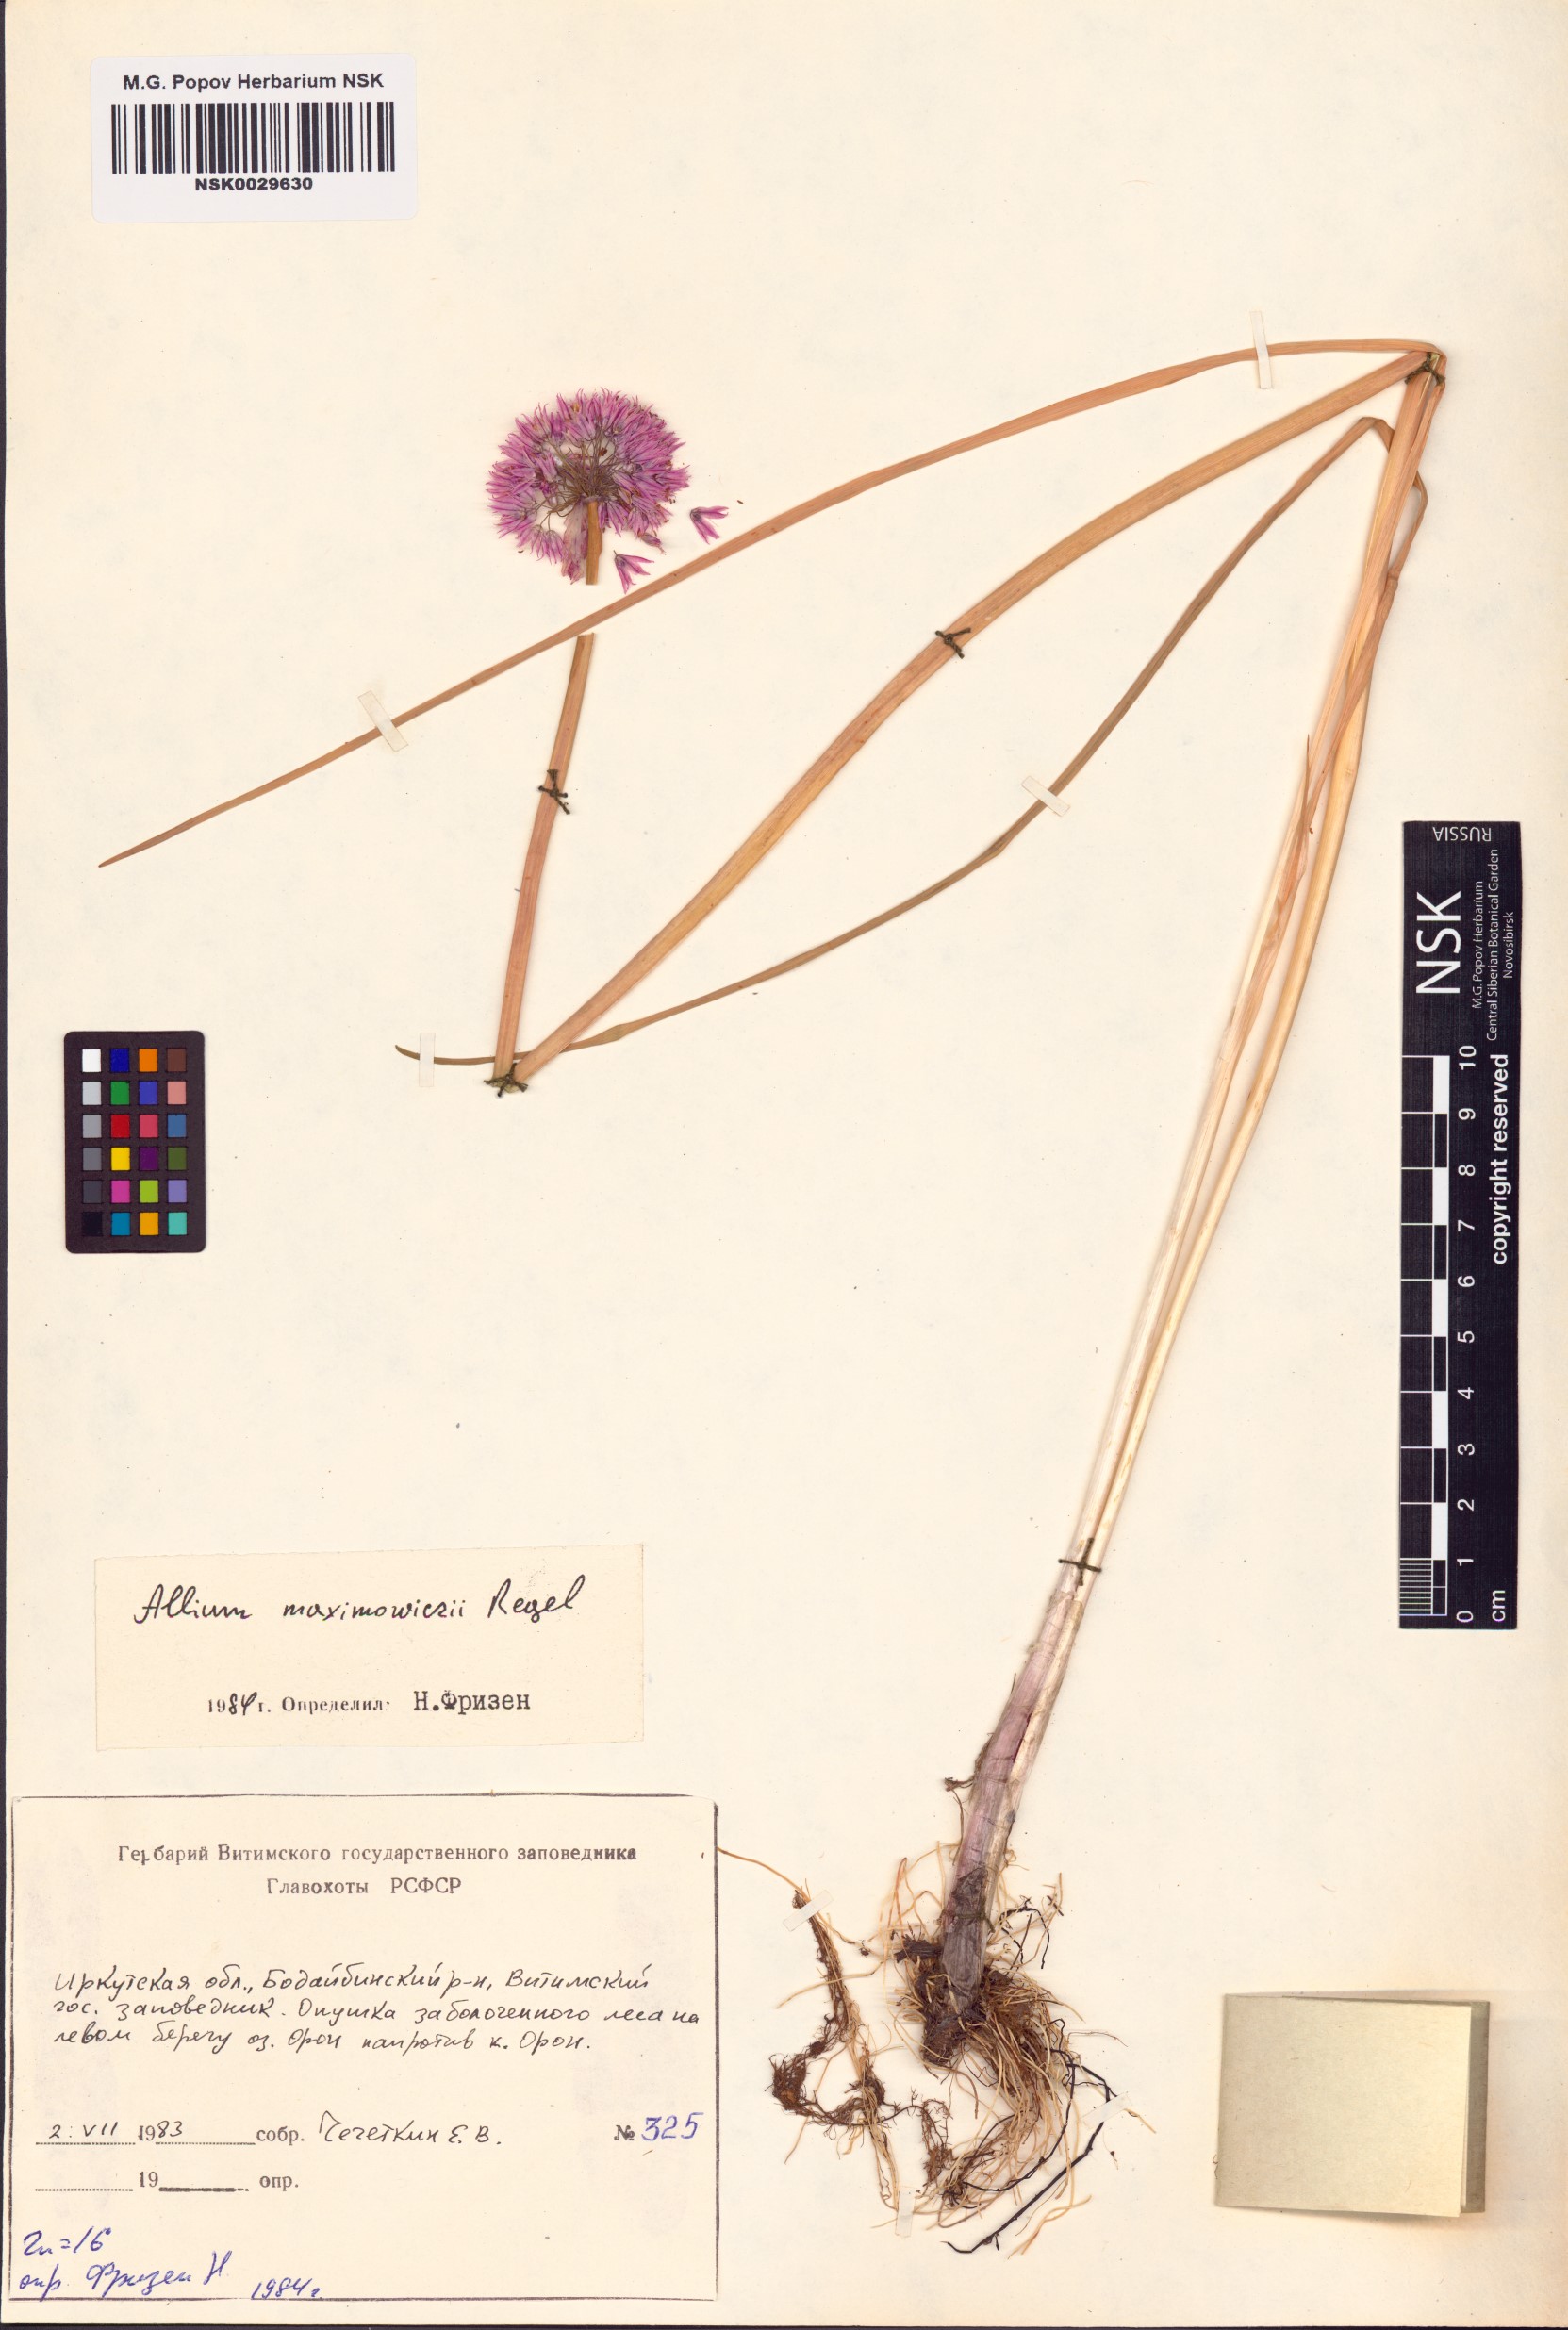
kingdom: Plantae
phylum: Tracheophyta
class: Liliopsida
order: Asparagales
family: Amaryllidaceae
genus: Allium
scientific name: Allium maximowiczii
